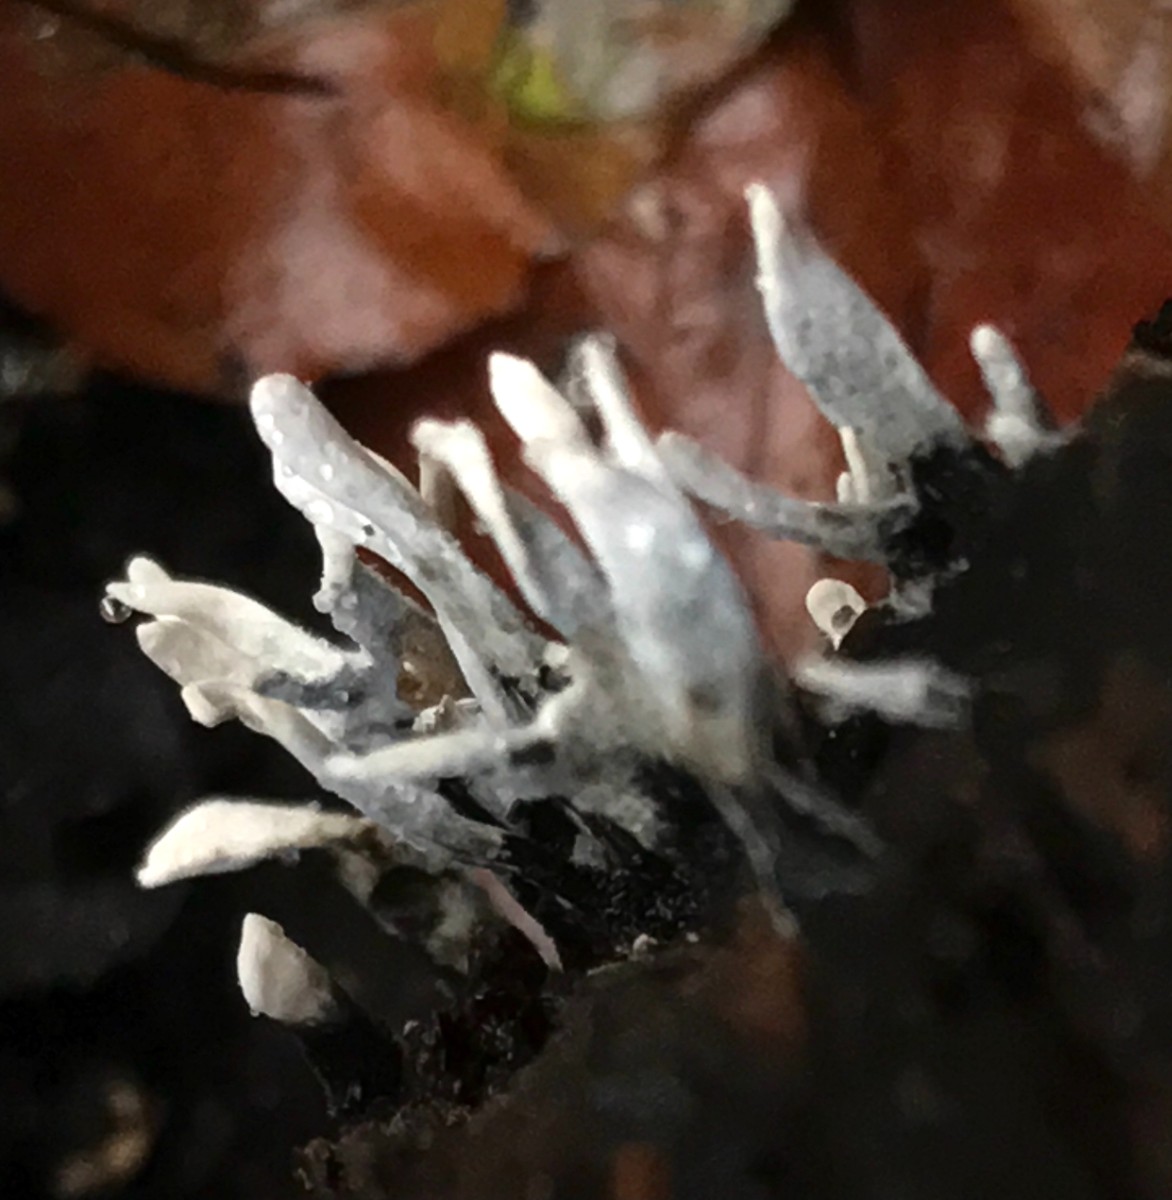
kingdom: Fungi
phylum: Ascomycota
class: Sordariomycetes
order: Xylariales
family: Xylariaceae
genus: Xylaria
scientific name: Xylaria hypoxylon
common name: grenet stødsvamp
